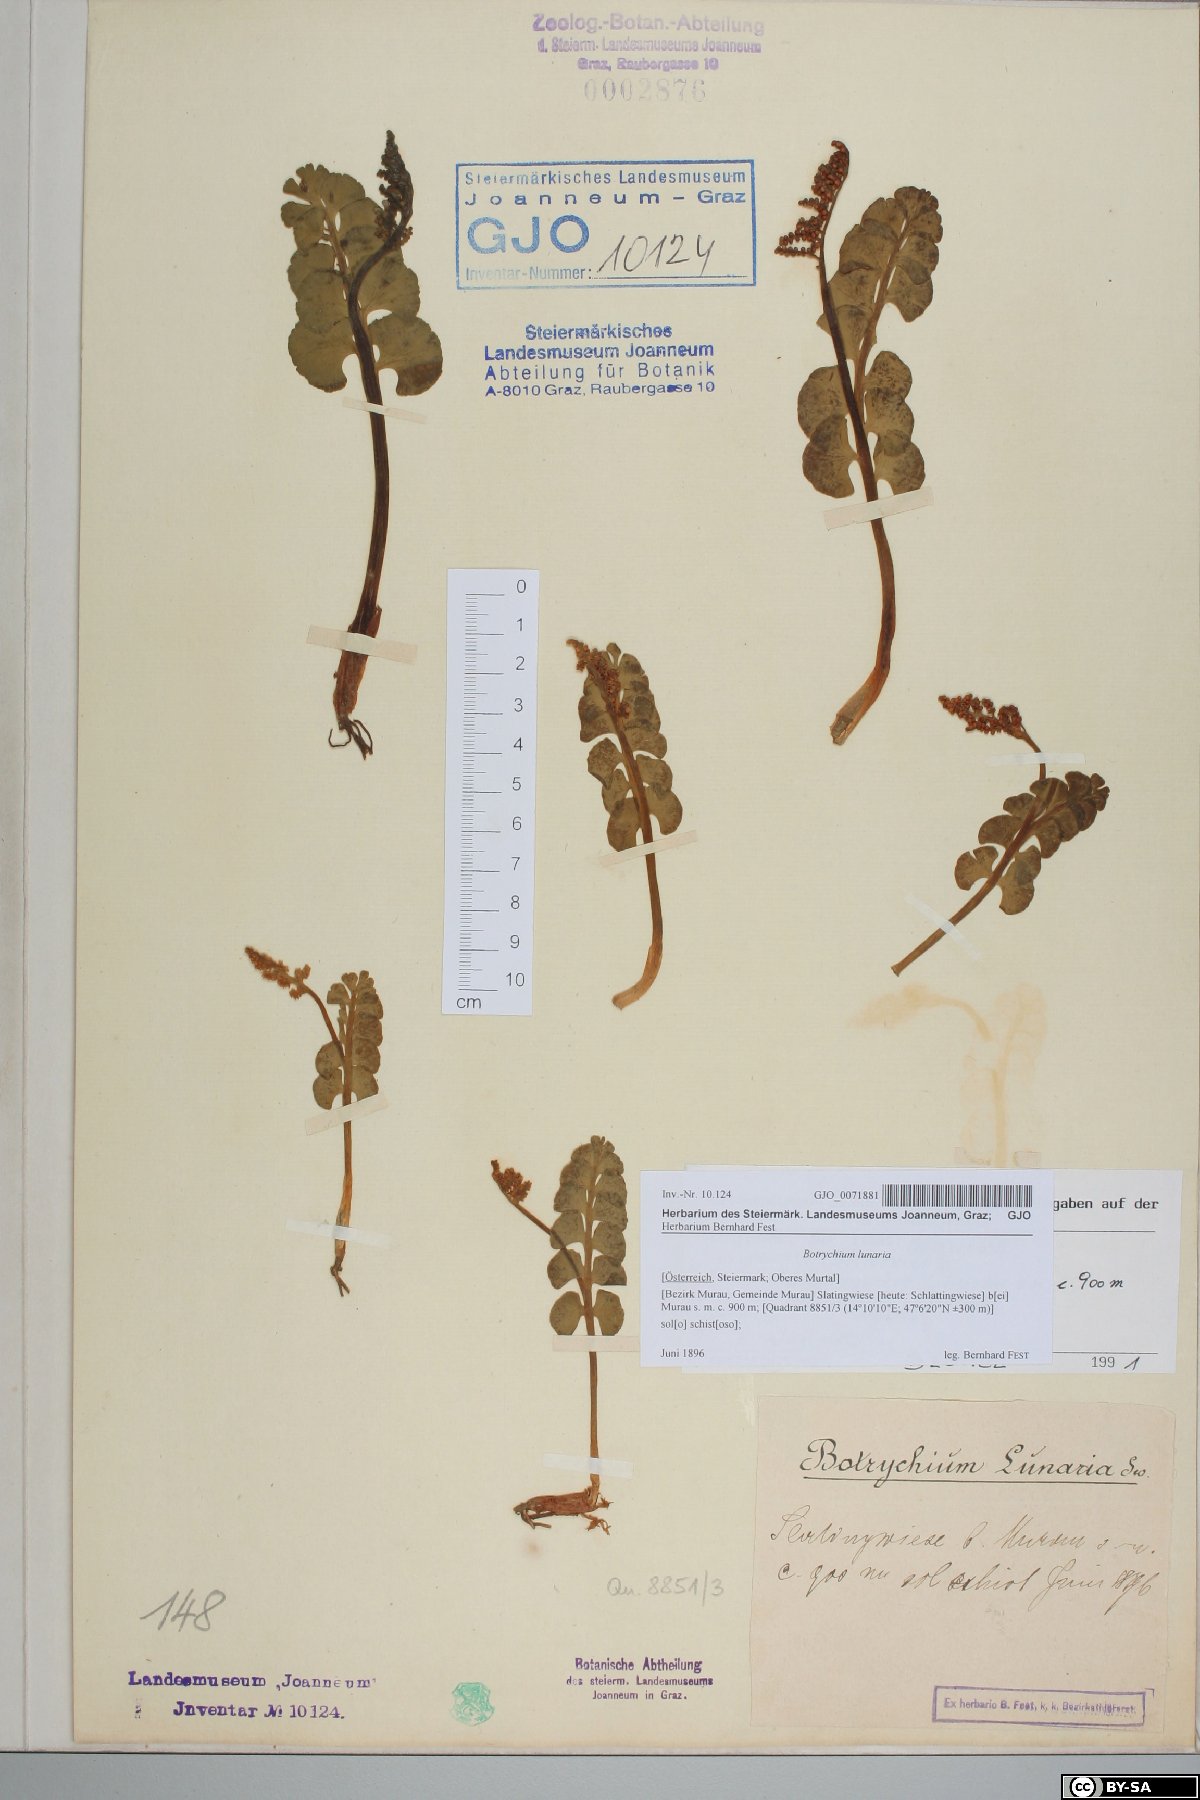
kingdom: Plantae
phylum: Tracheophyta
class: Polypodiopsida
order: Ophioglossales
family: Ophioglossaceae
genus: Botrychium
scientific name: Botrychium lunaria
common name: Moonwort
